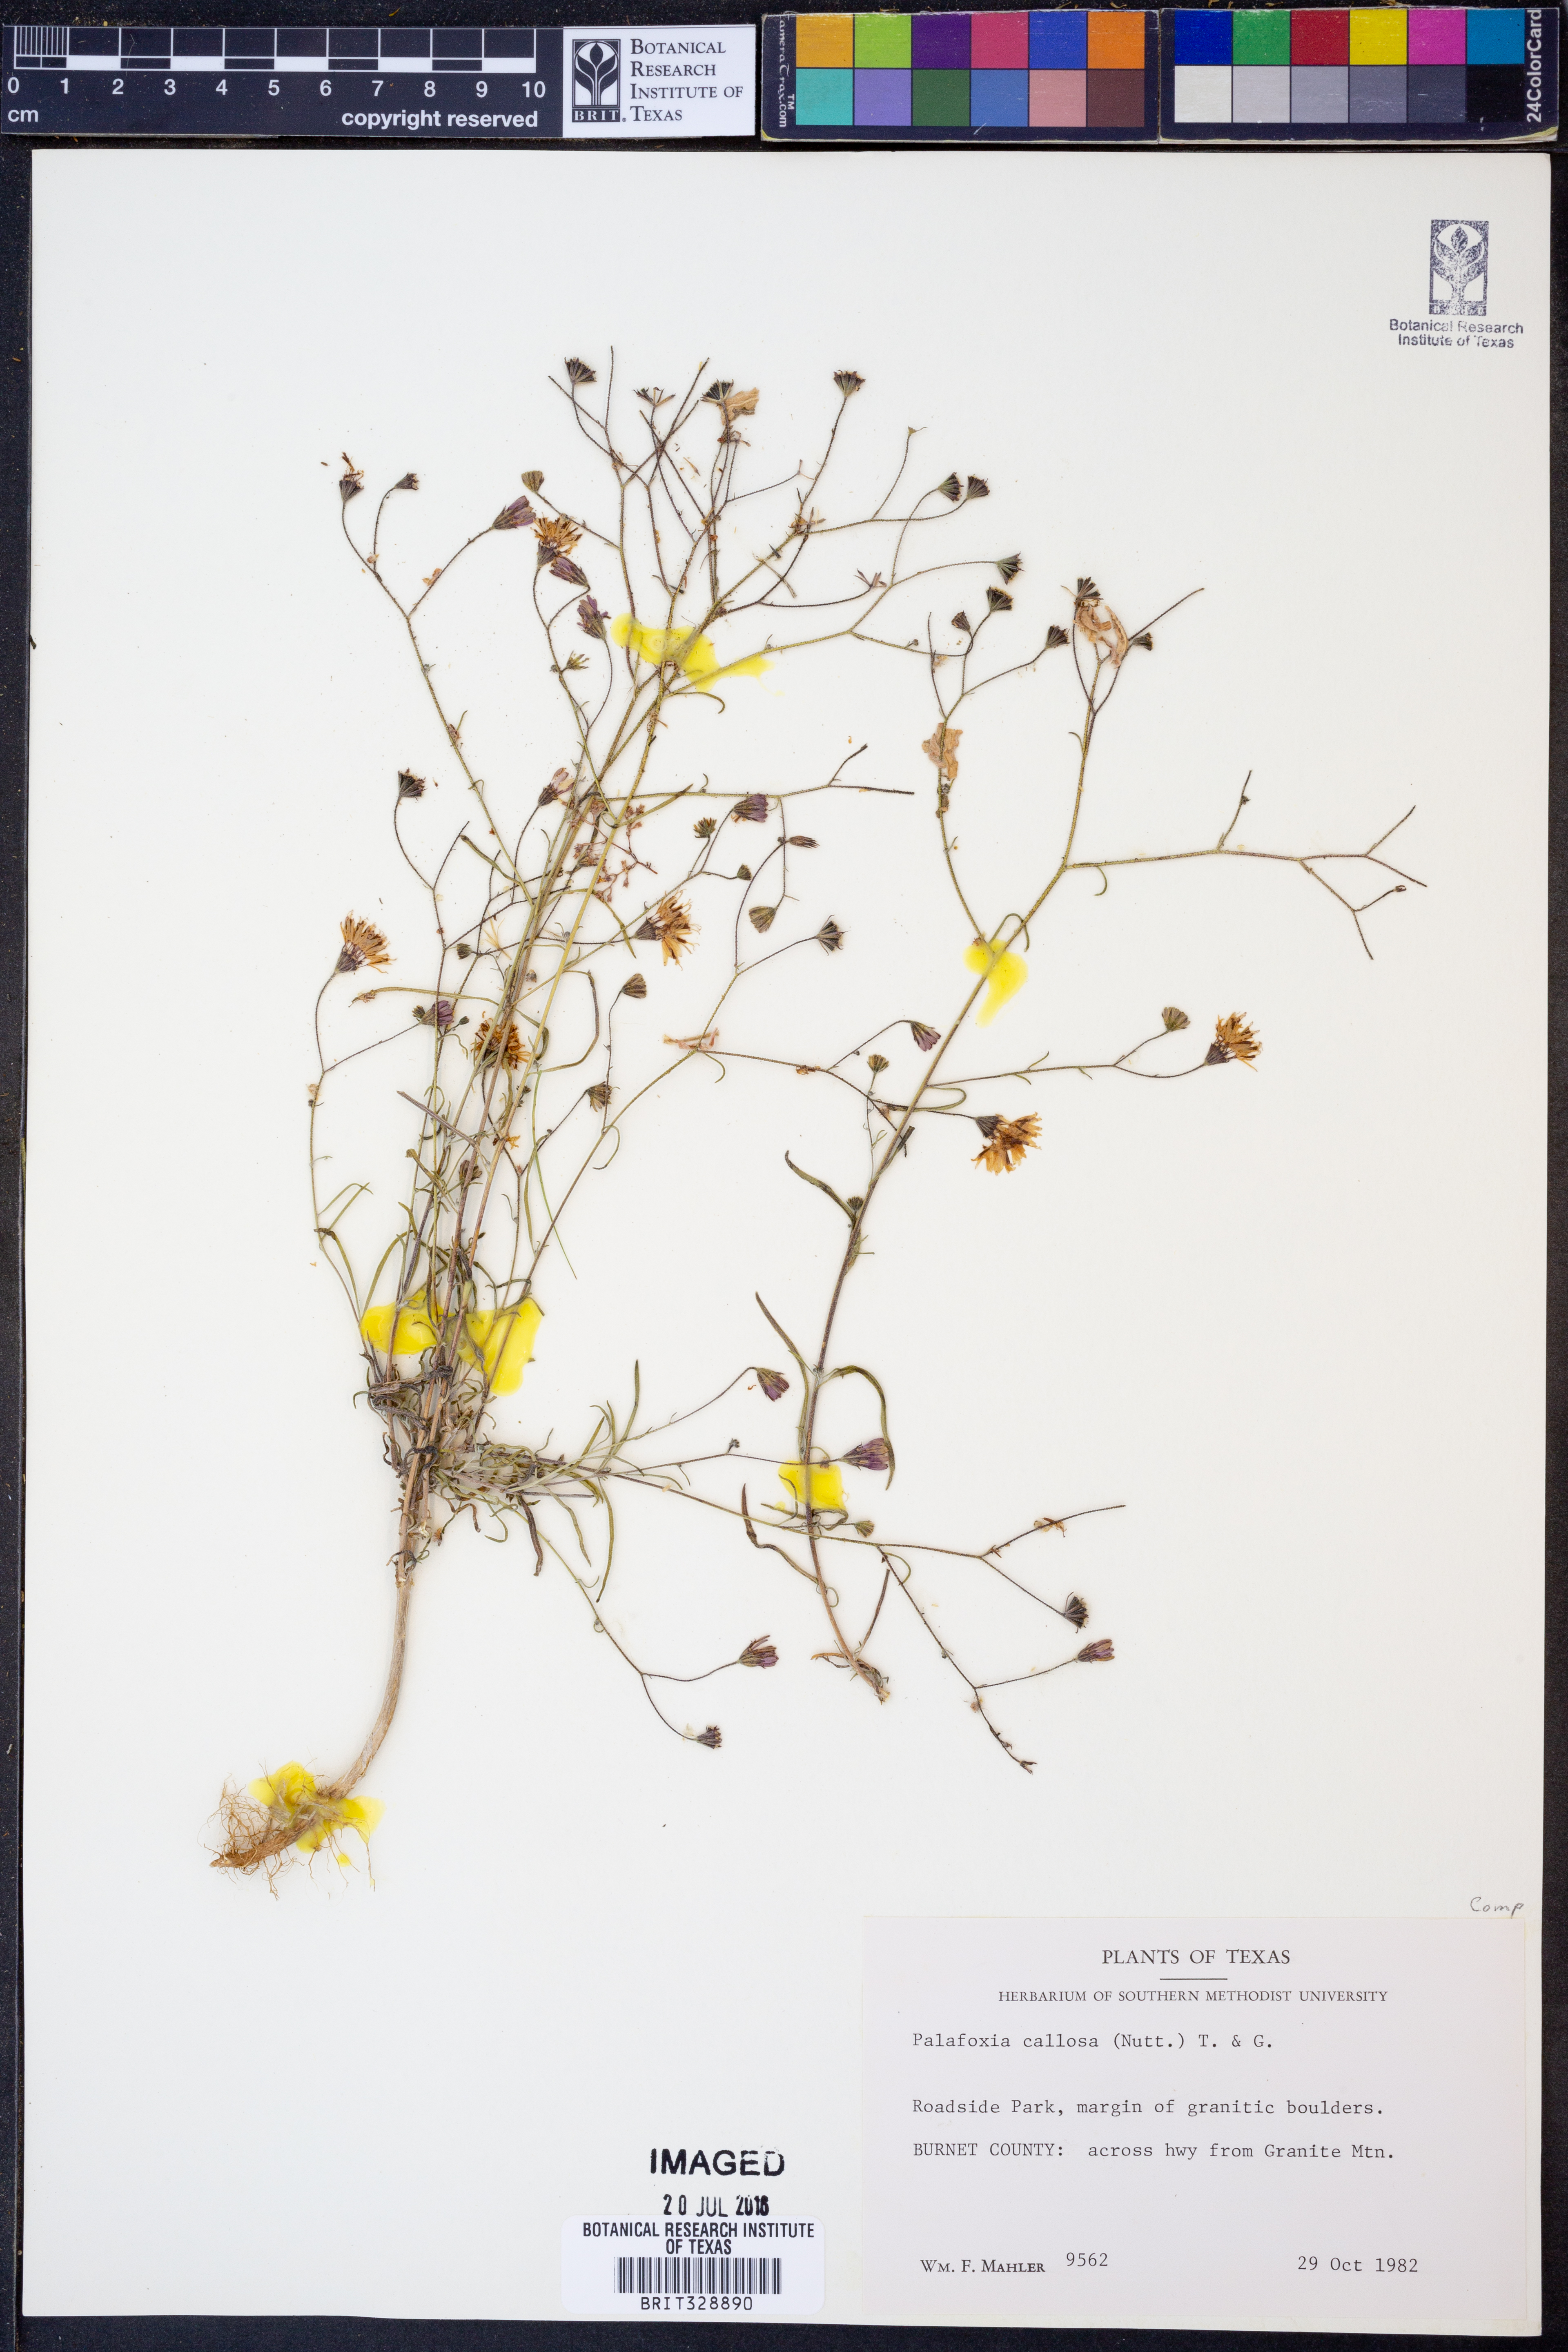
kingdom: Plantae
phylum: Tracheophyta
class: Magnoliopsida
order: Asterales
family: Asteraceae
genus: Palafoxia
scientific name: Palafoxia callosa
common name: Small palafox
